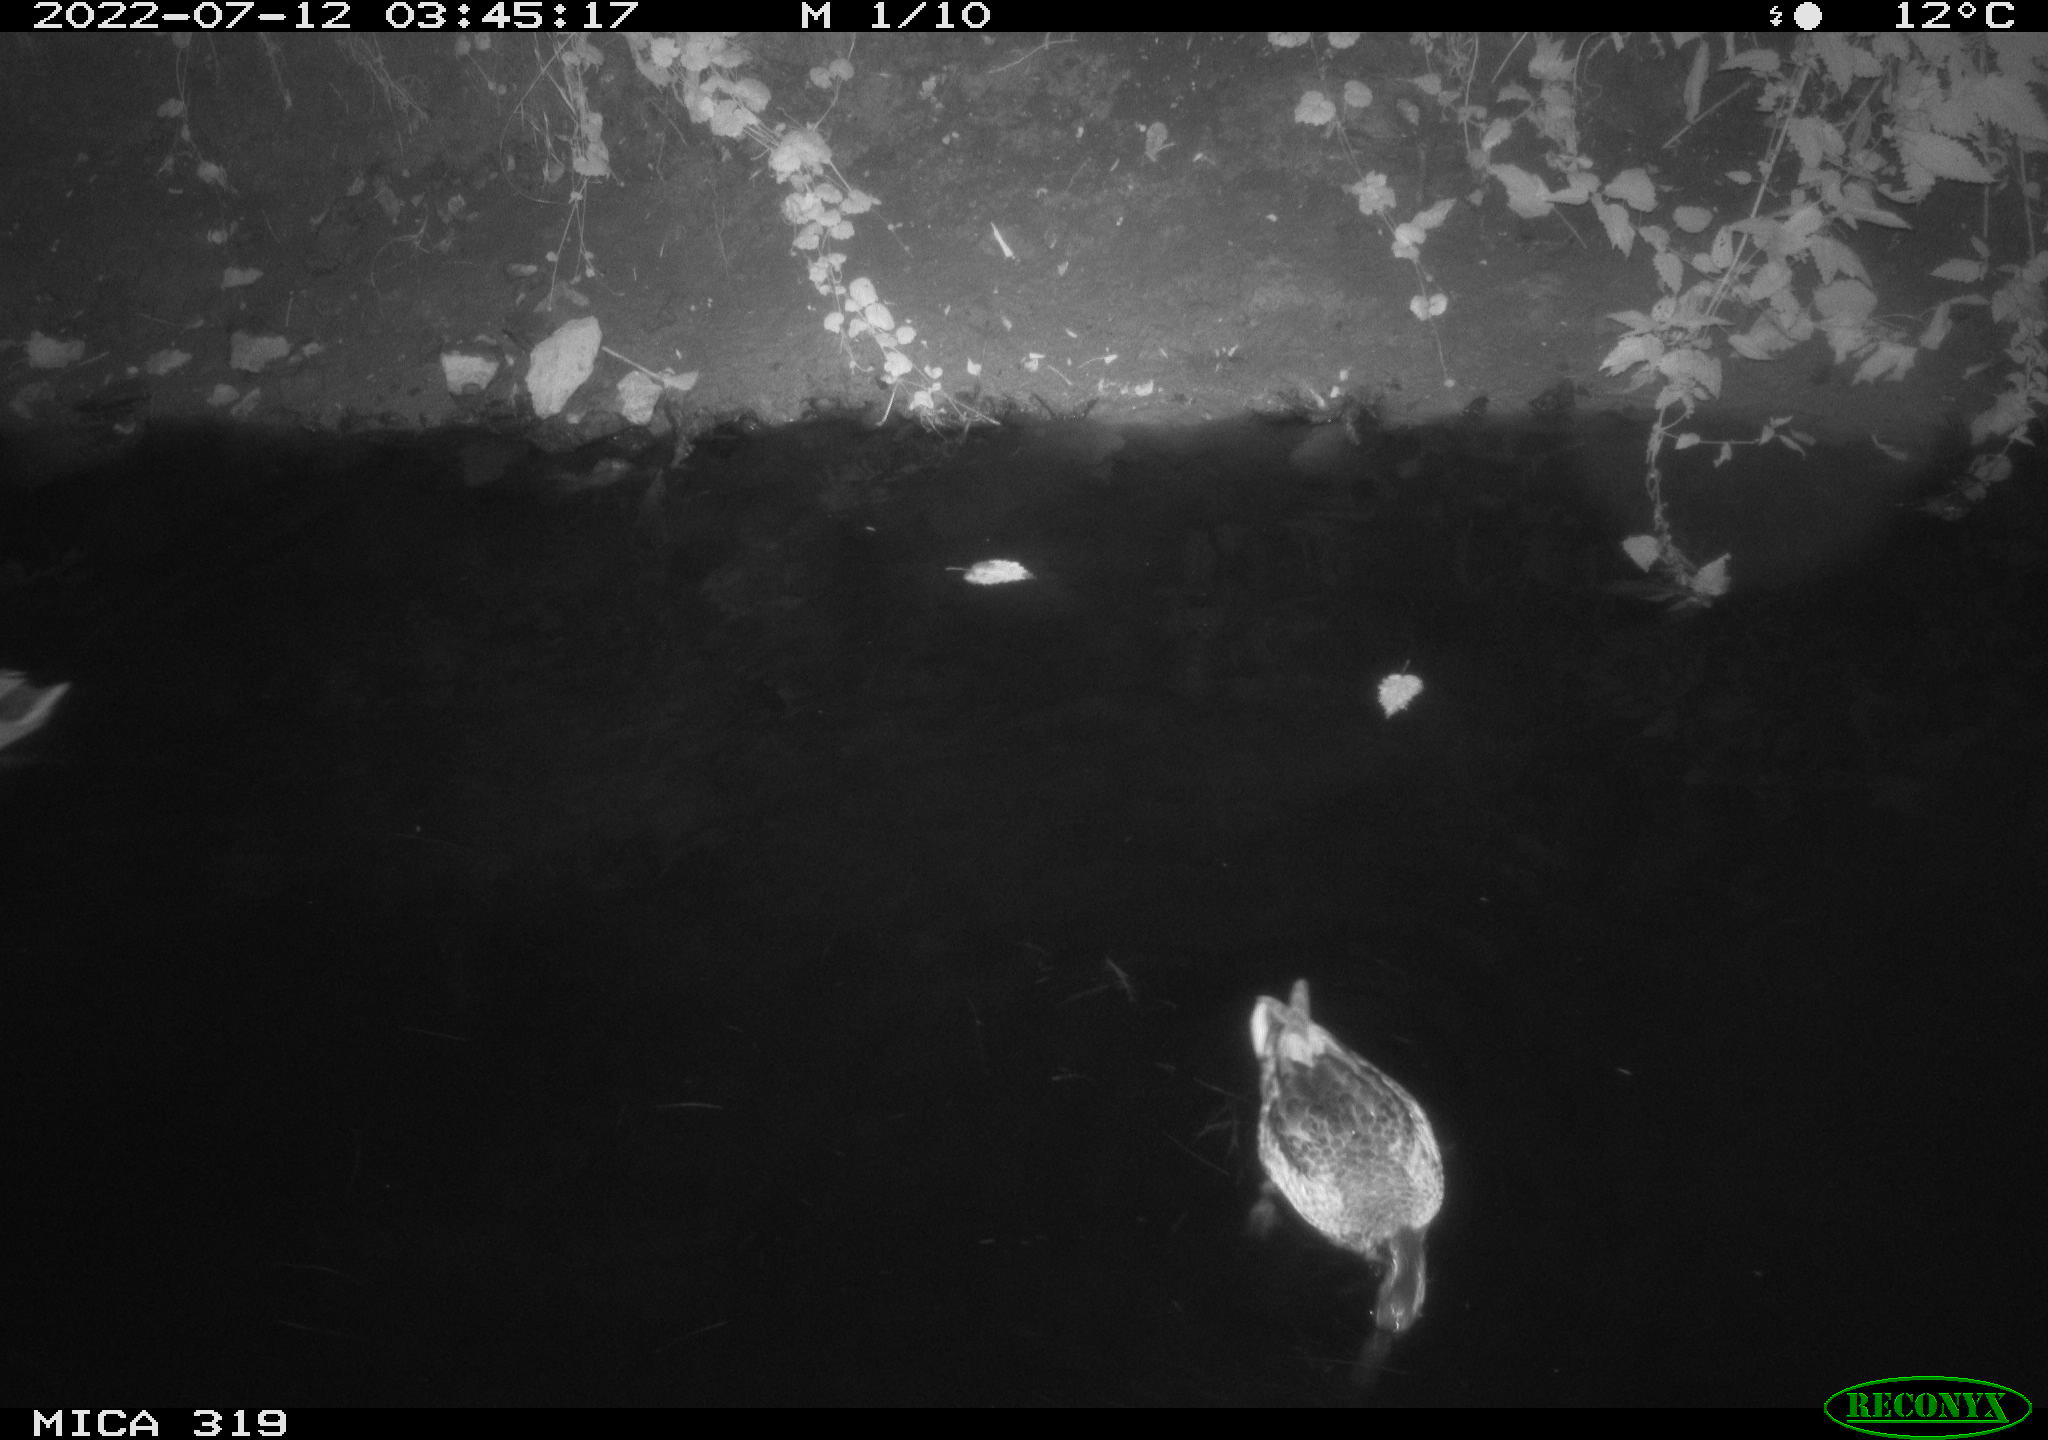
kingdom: Animalia
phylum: Chordata
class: Aves
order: Anseriformes
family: Anatidae
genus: Anas
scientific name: Anas platyrhynchos
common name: Mallard
